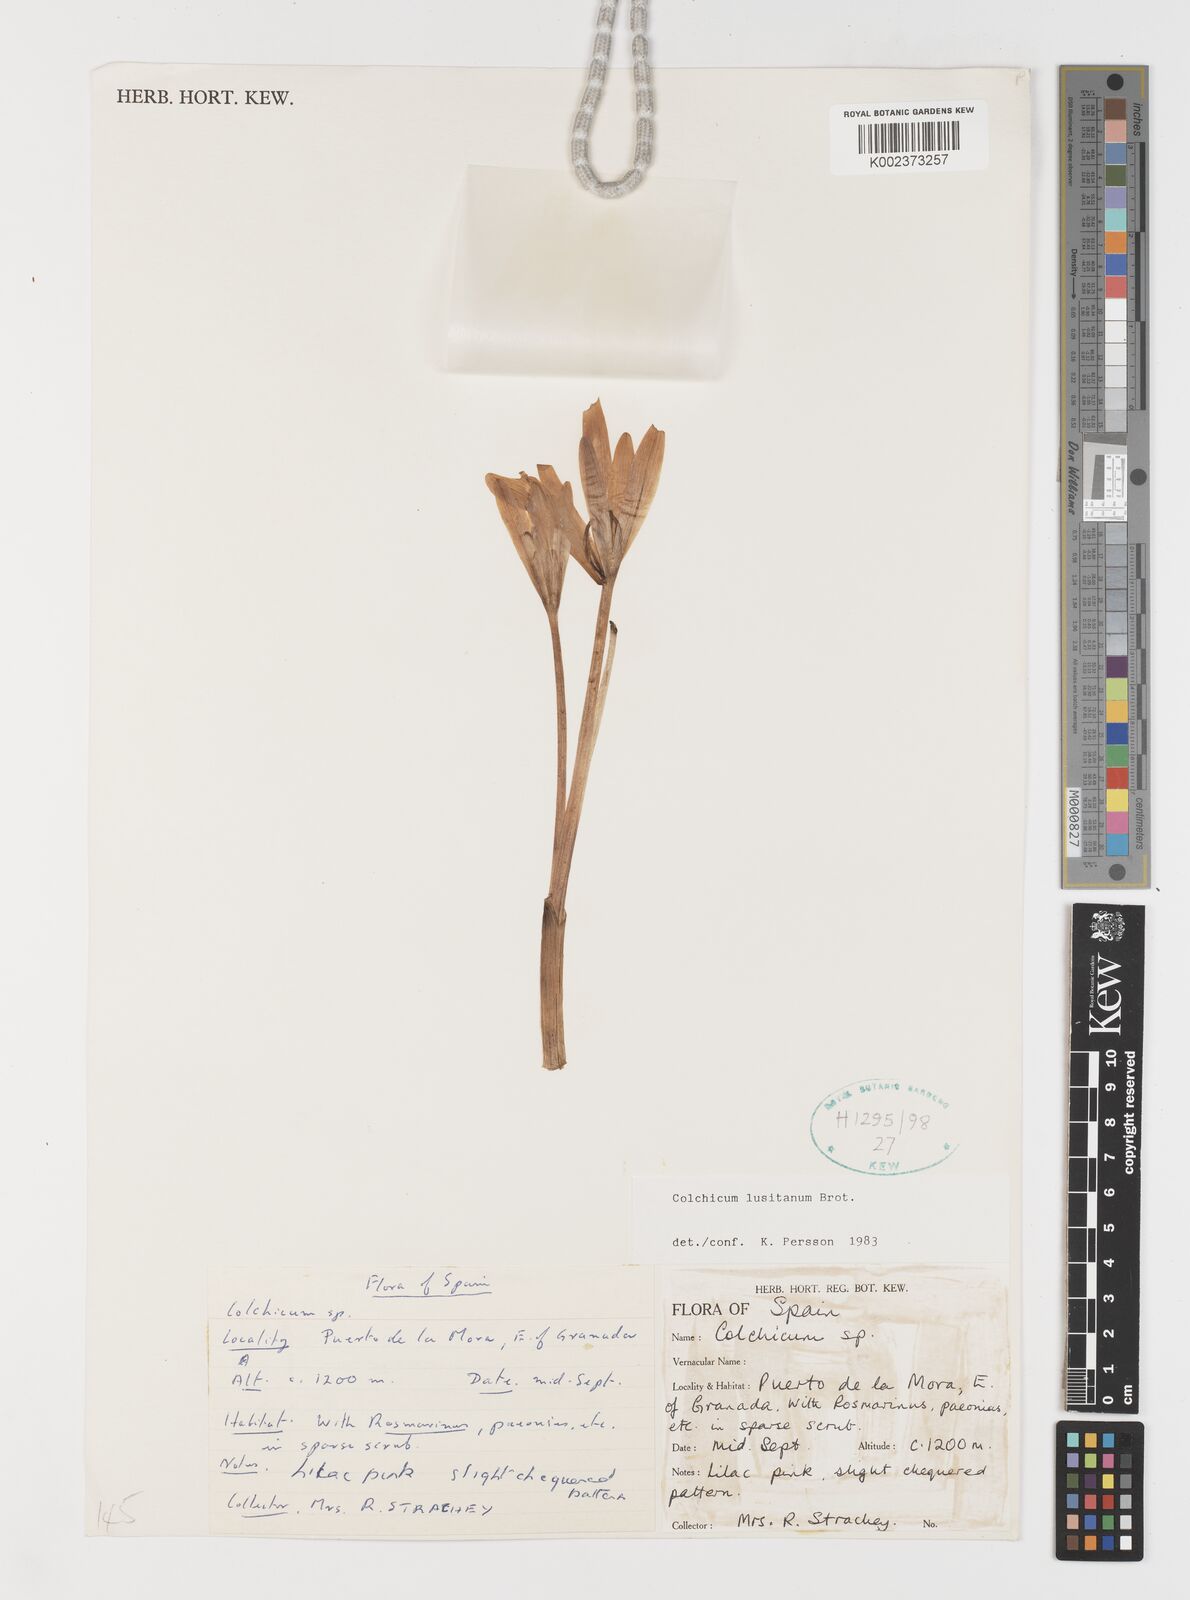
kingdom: Plantae
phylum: Tracheophyta
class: Liliopsida
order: Liliales
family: Colchicaceae
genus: Colchicum
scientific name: Colchicum lusitanum
